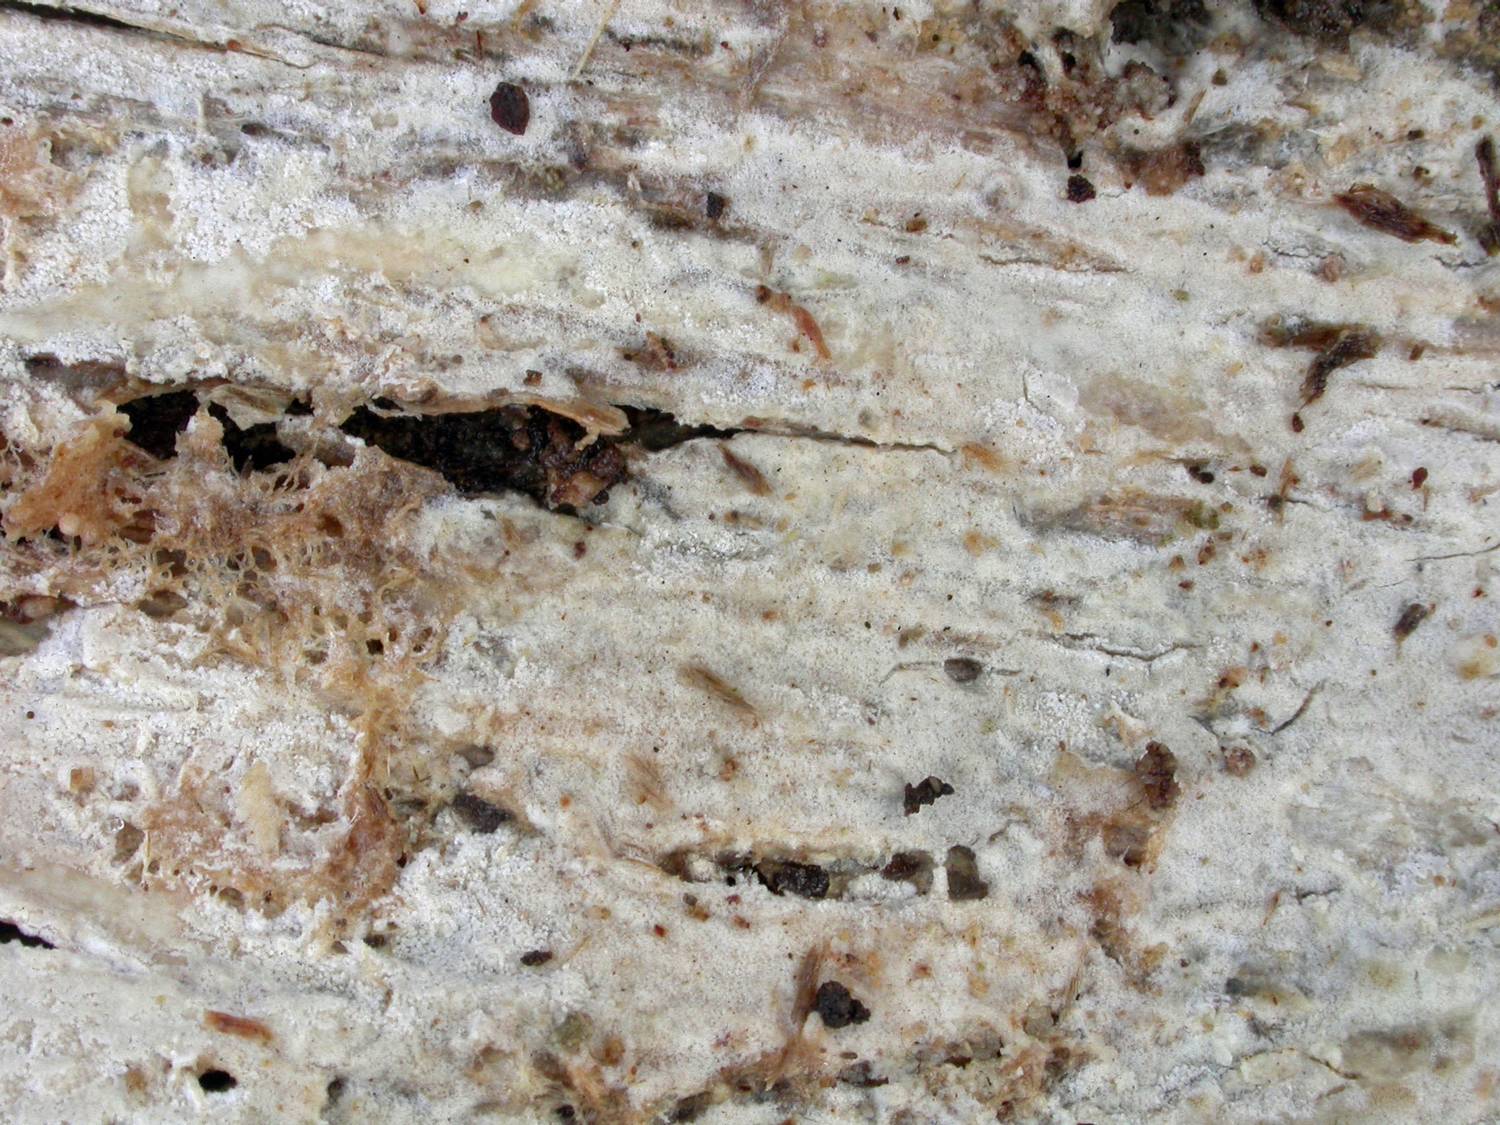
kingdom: Fungi
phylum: Basidiomycota
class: Agaricomycetes
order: Polyporales
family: Phanerochaetaceae
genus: Phanerochaete
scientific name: Phanerochaete velutina
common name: dunet randtråd
